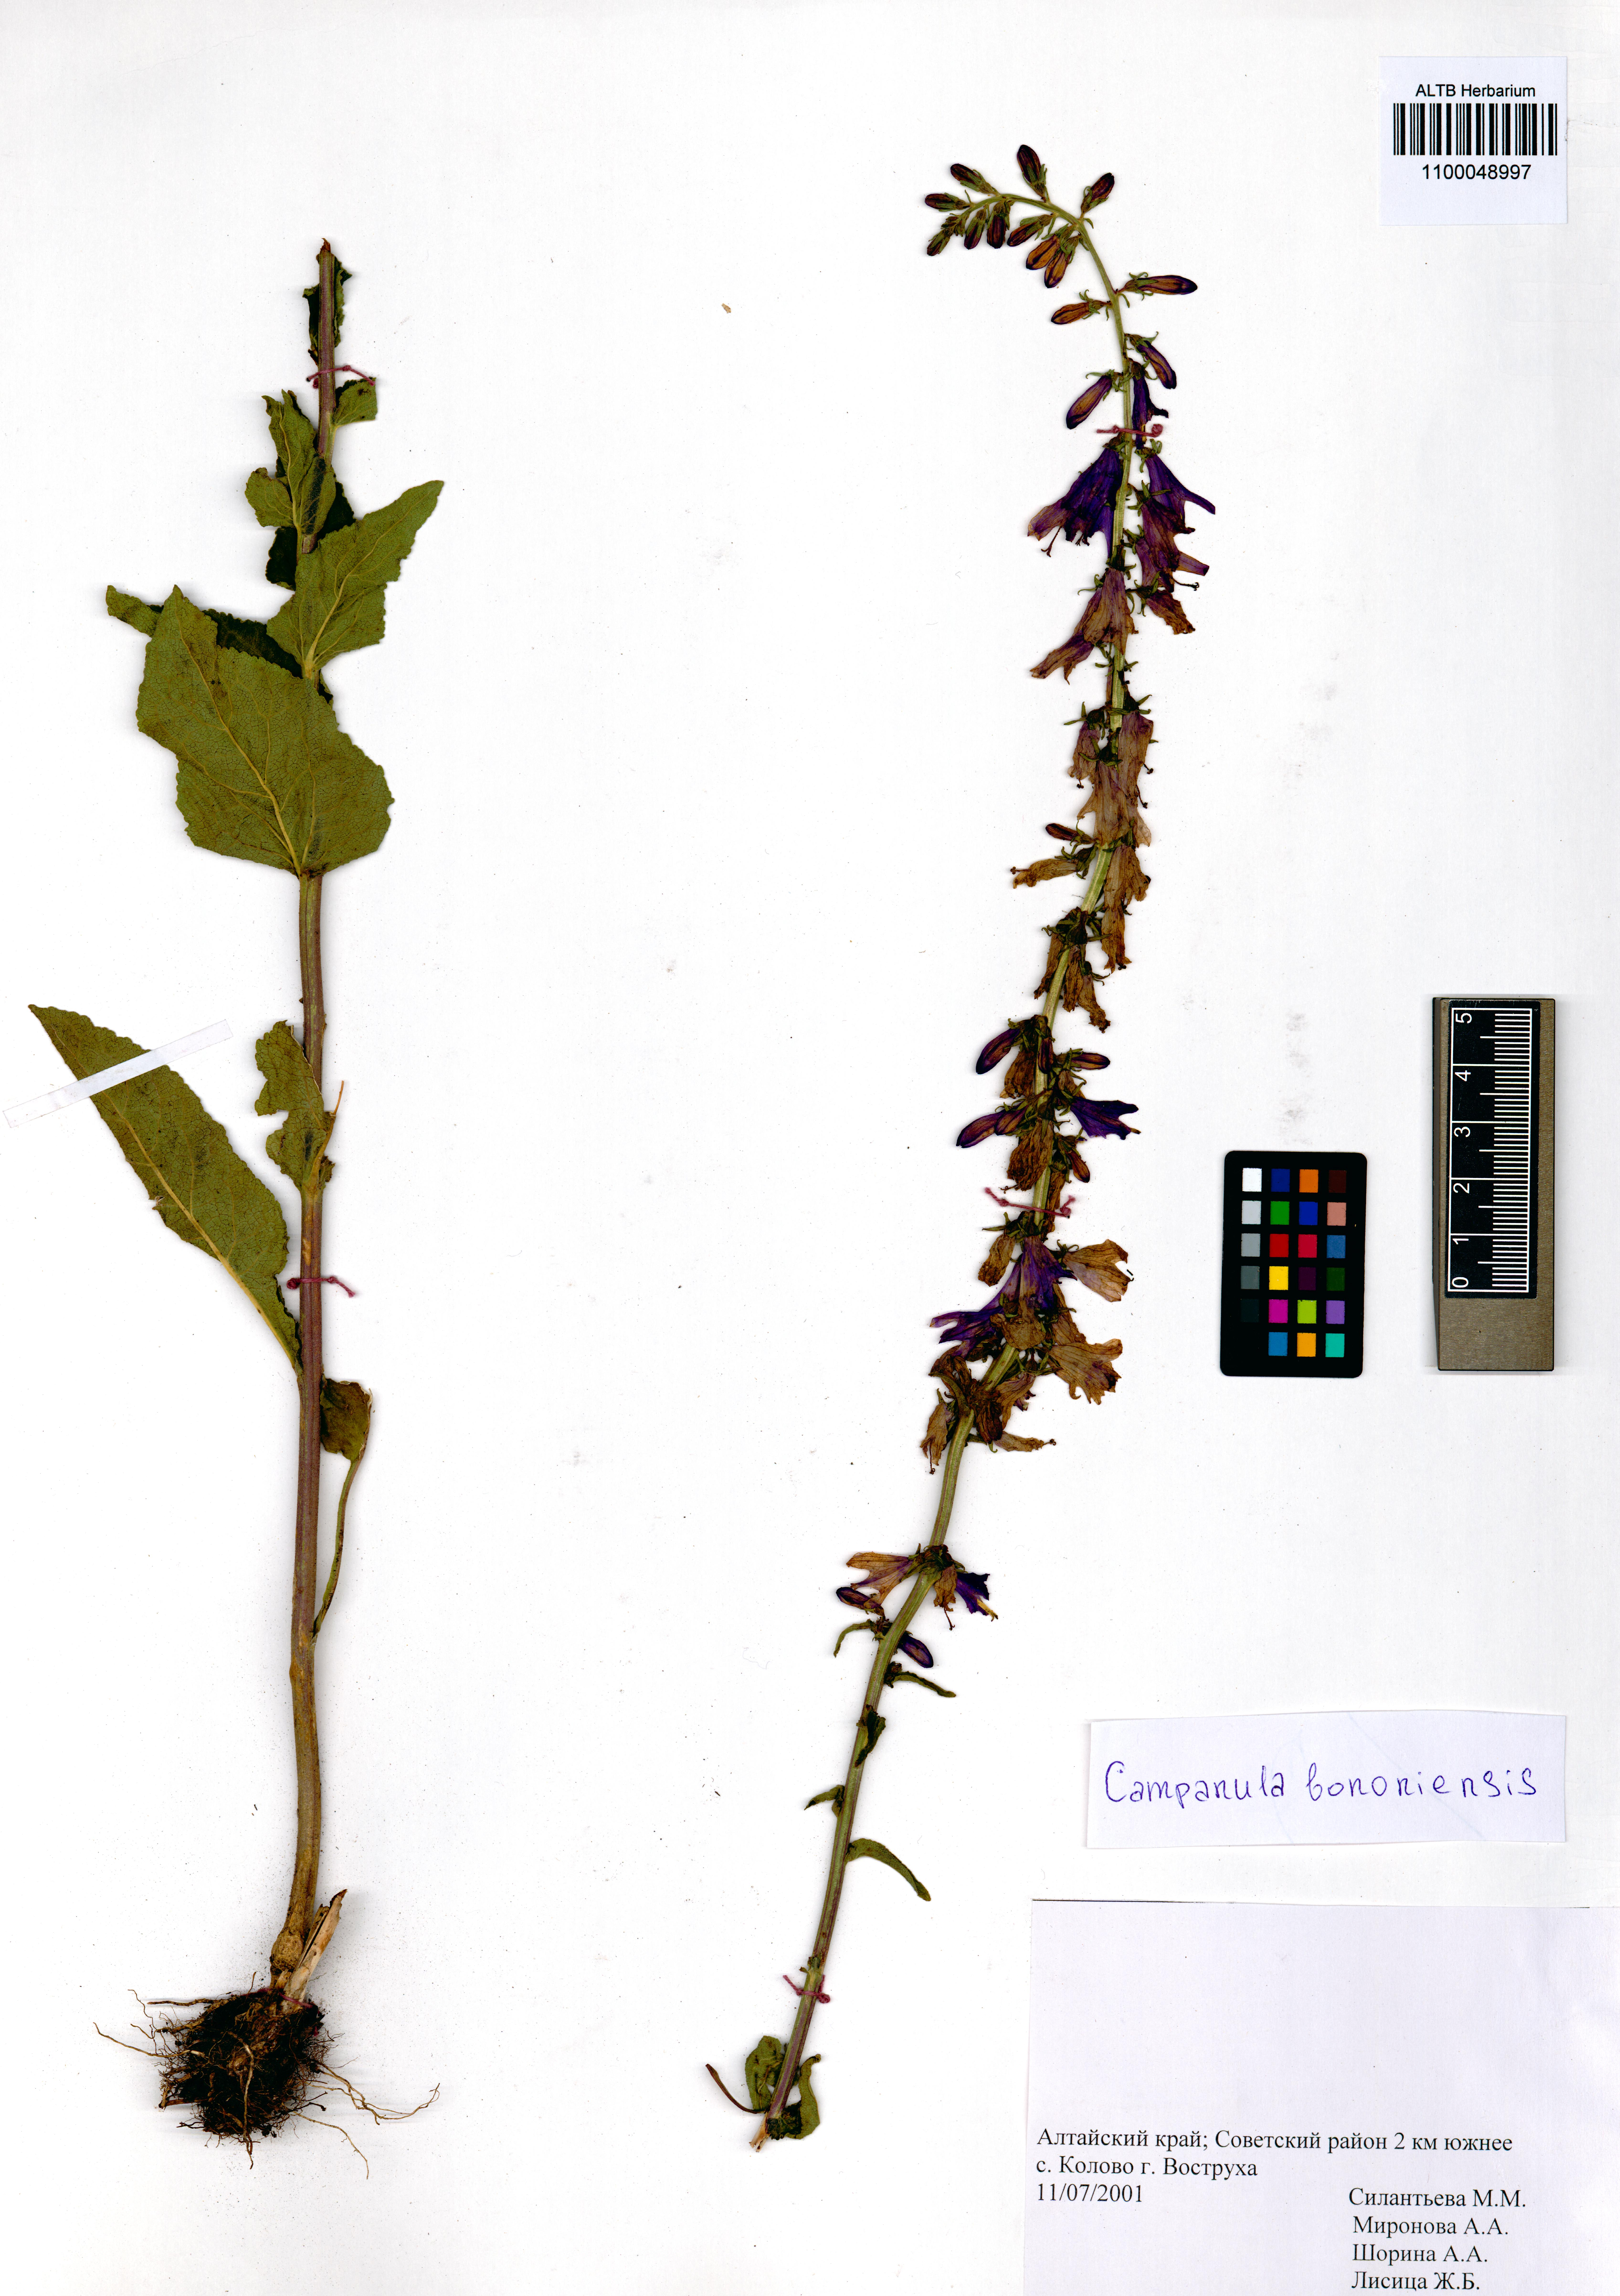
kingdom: Plantae
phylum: Tracheophyta
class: Magnoliopsida
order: Asterales
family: Campanulaceae
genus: Campanula
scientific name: Campanula bononiensis
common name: Pale bellflower
